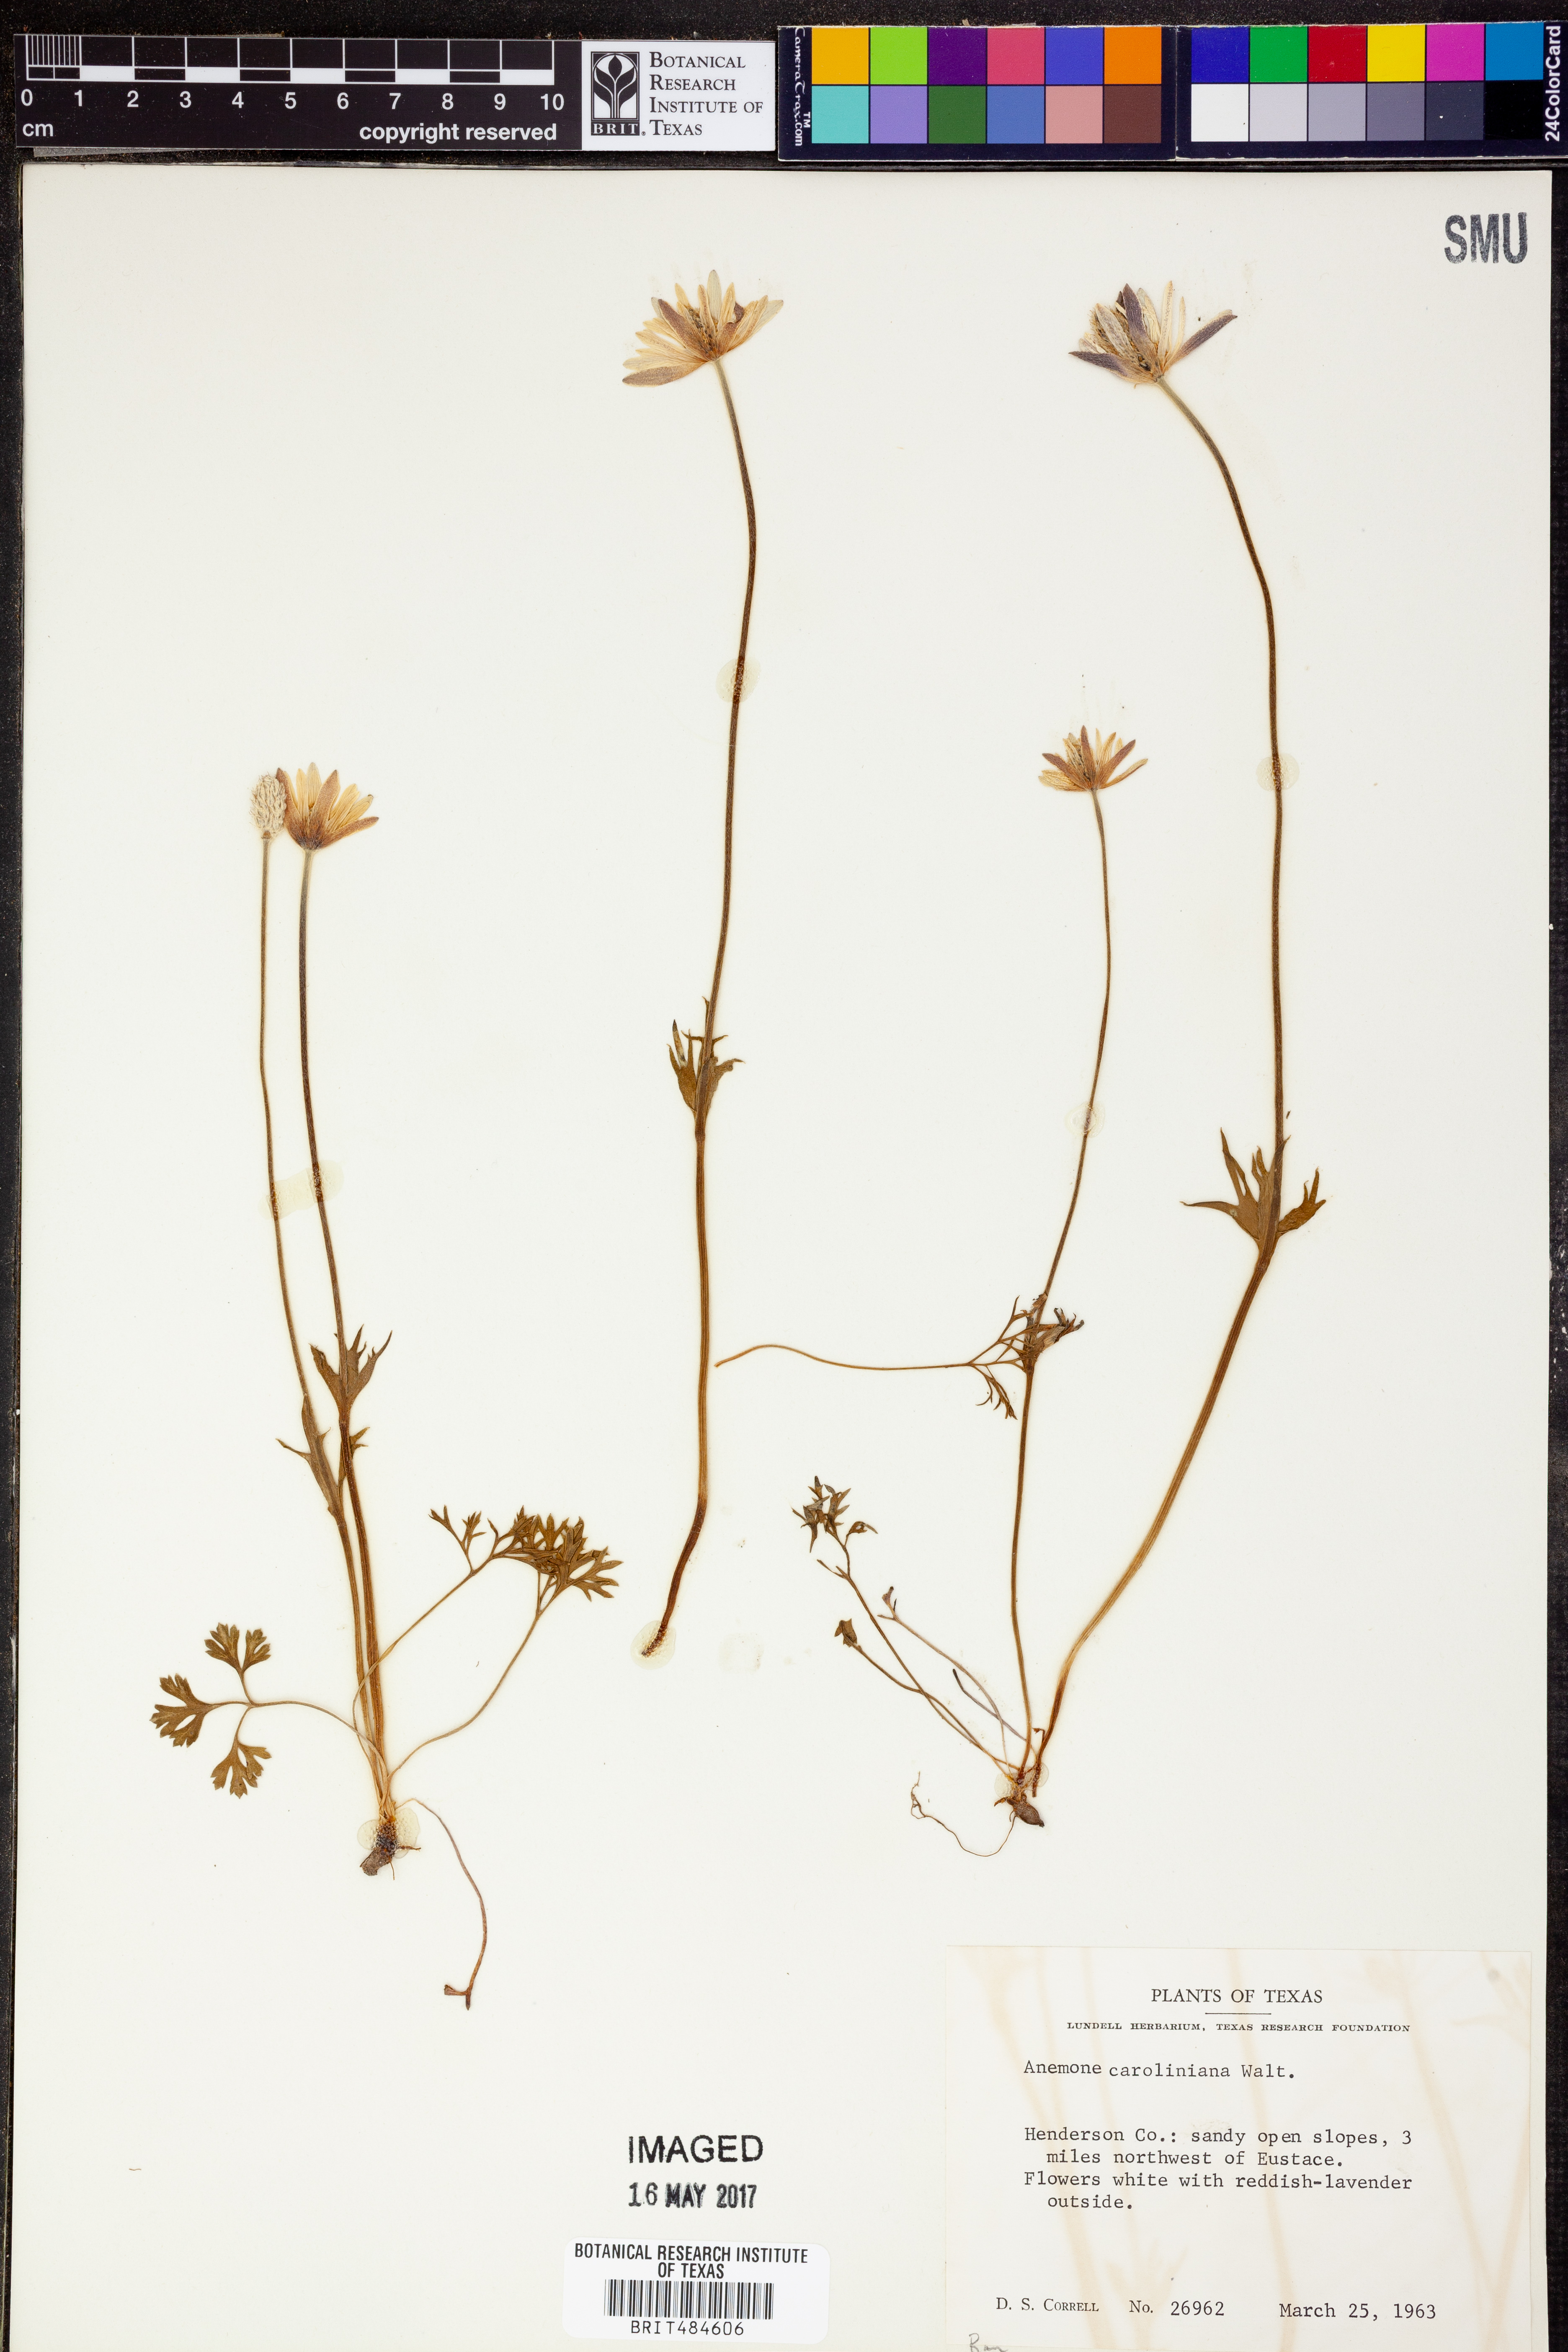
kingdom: Plantae
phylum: Tracheophyta
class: Magnoliopsida
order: Ranunculales
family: Ranunculaceae
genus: Anemone
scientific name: Anemone caroliniana
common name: Carolina anemone
